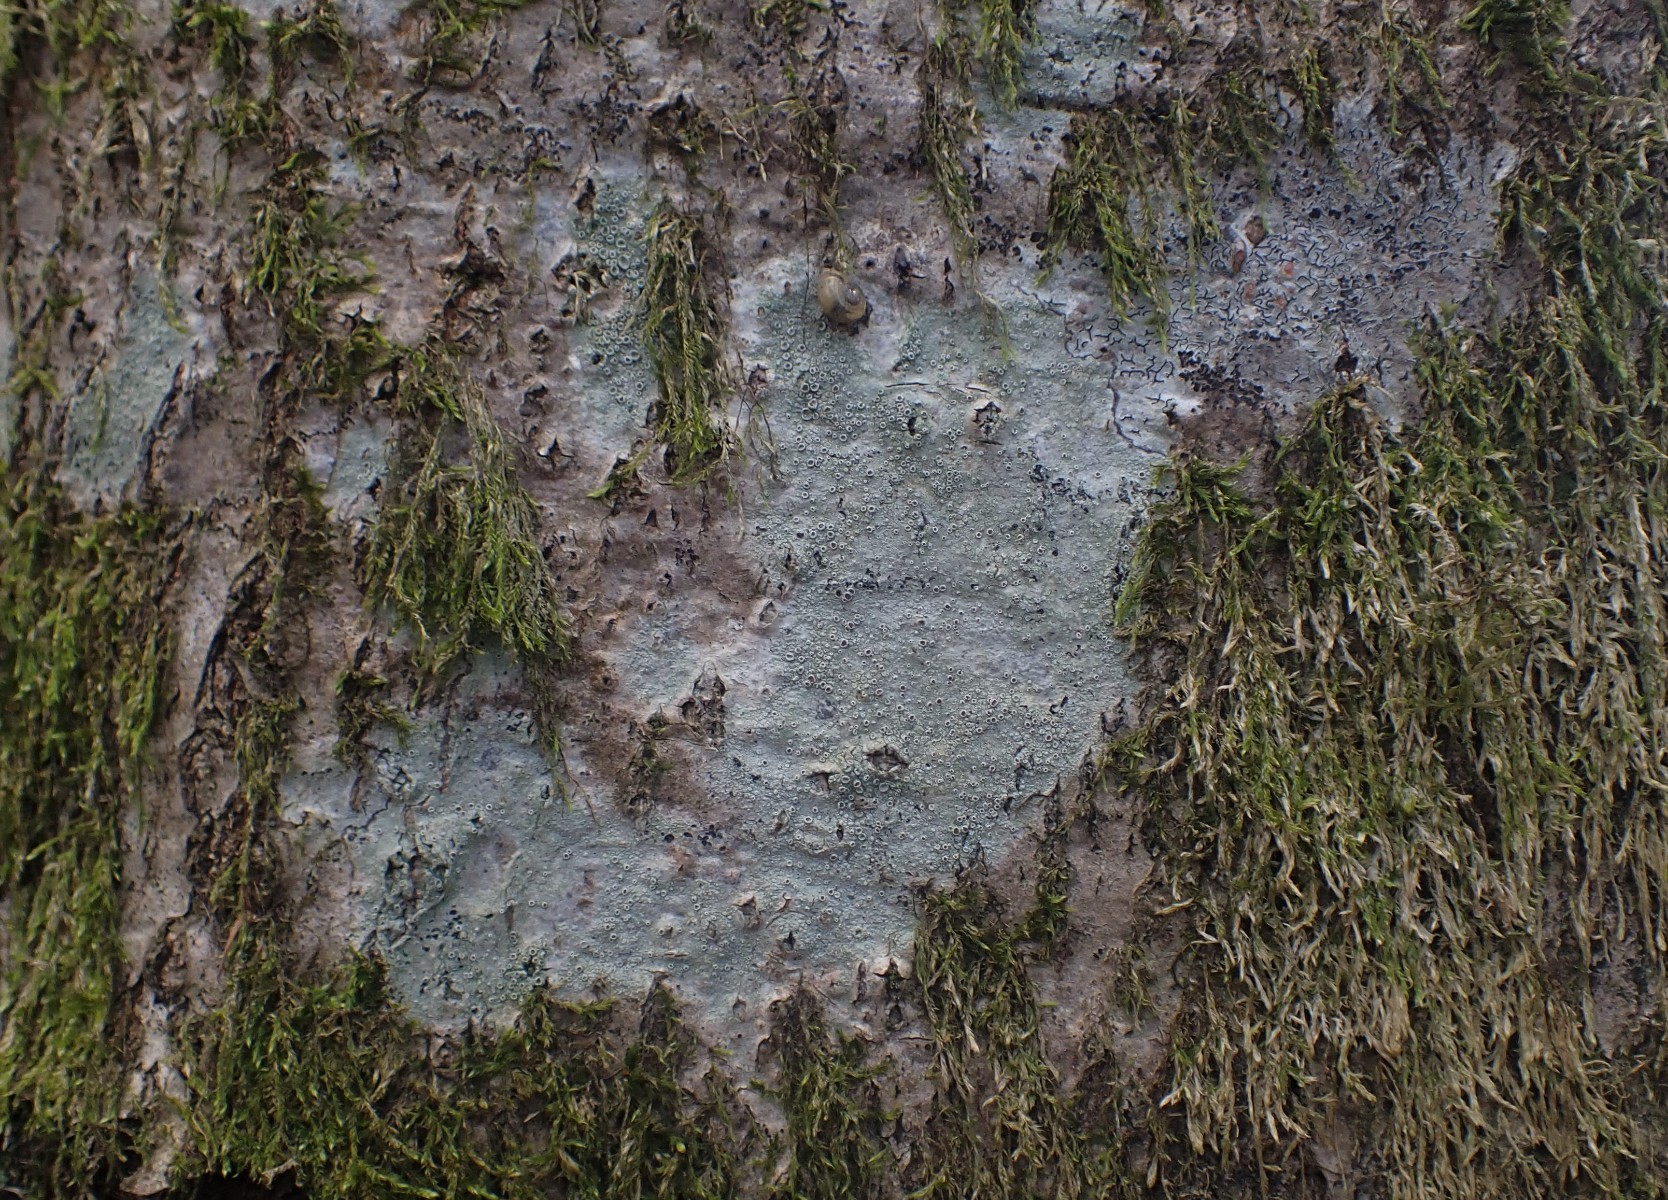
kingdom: Fungi
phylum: Ascomycota
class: Lecanoromycetes
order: Lecanorales
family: Lecanoraceae
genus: Lecanora
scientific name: Lecanora chlarotera
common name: brun kantskivelav
